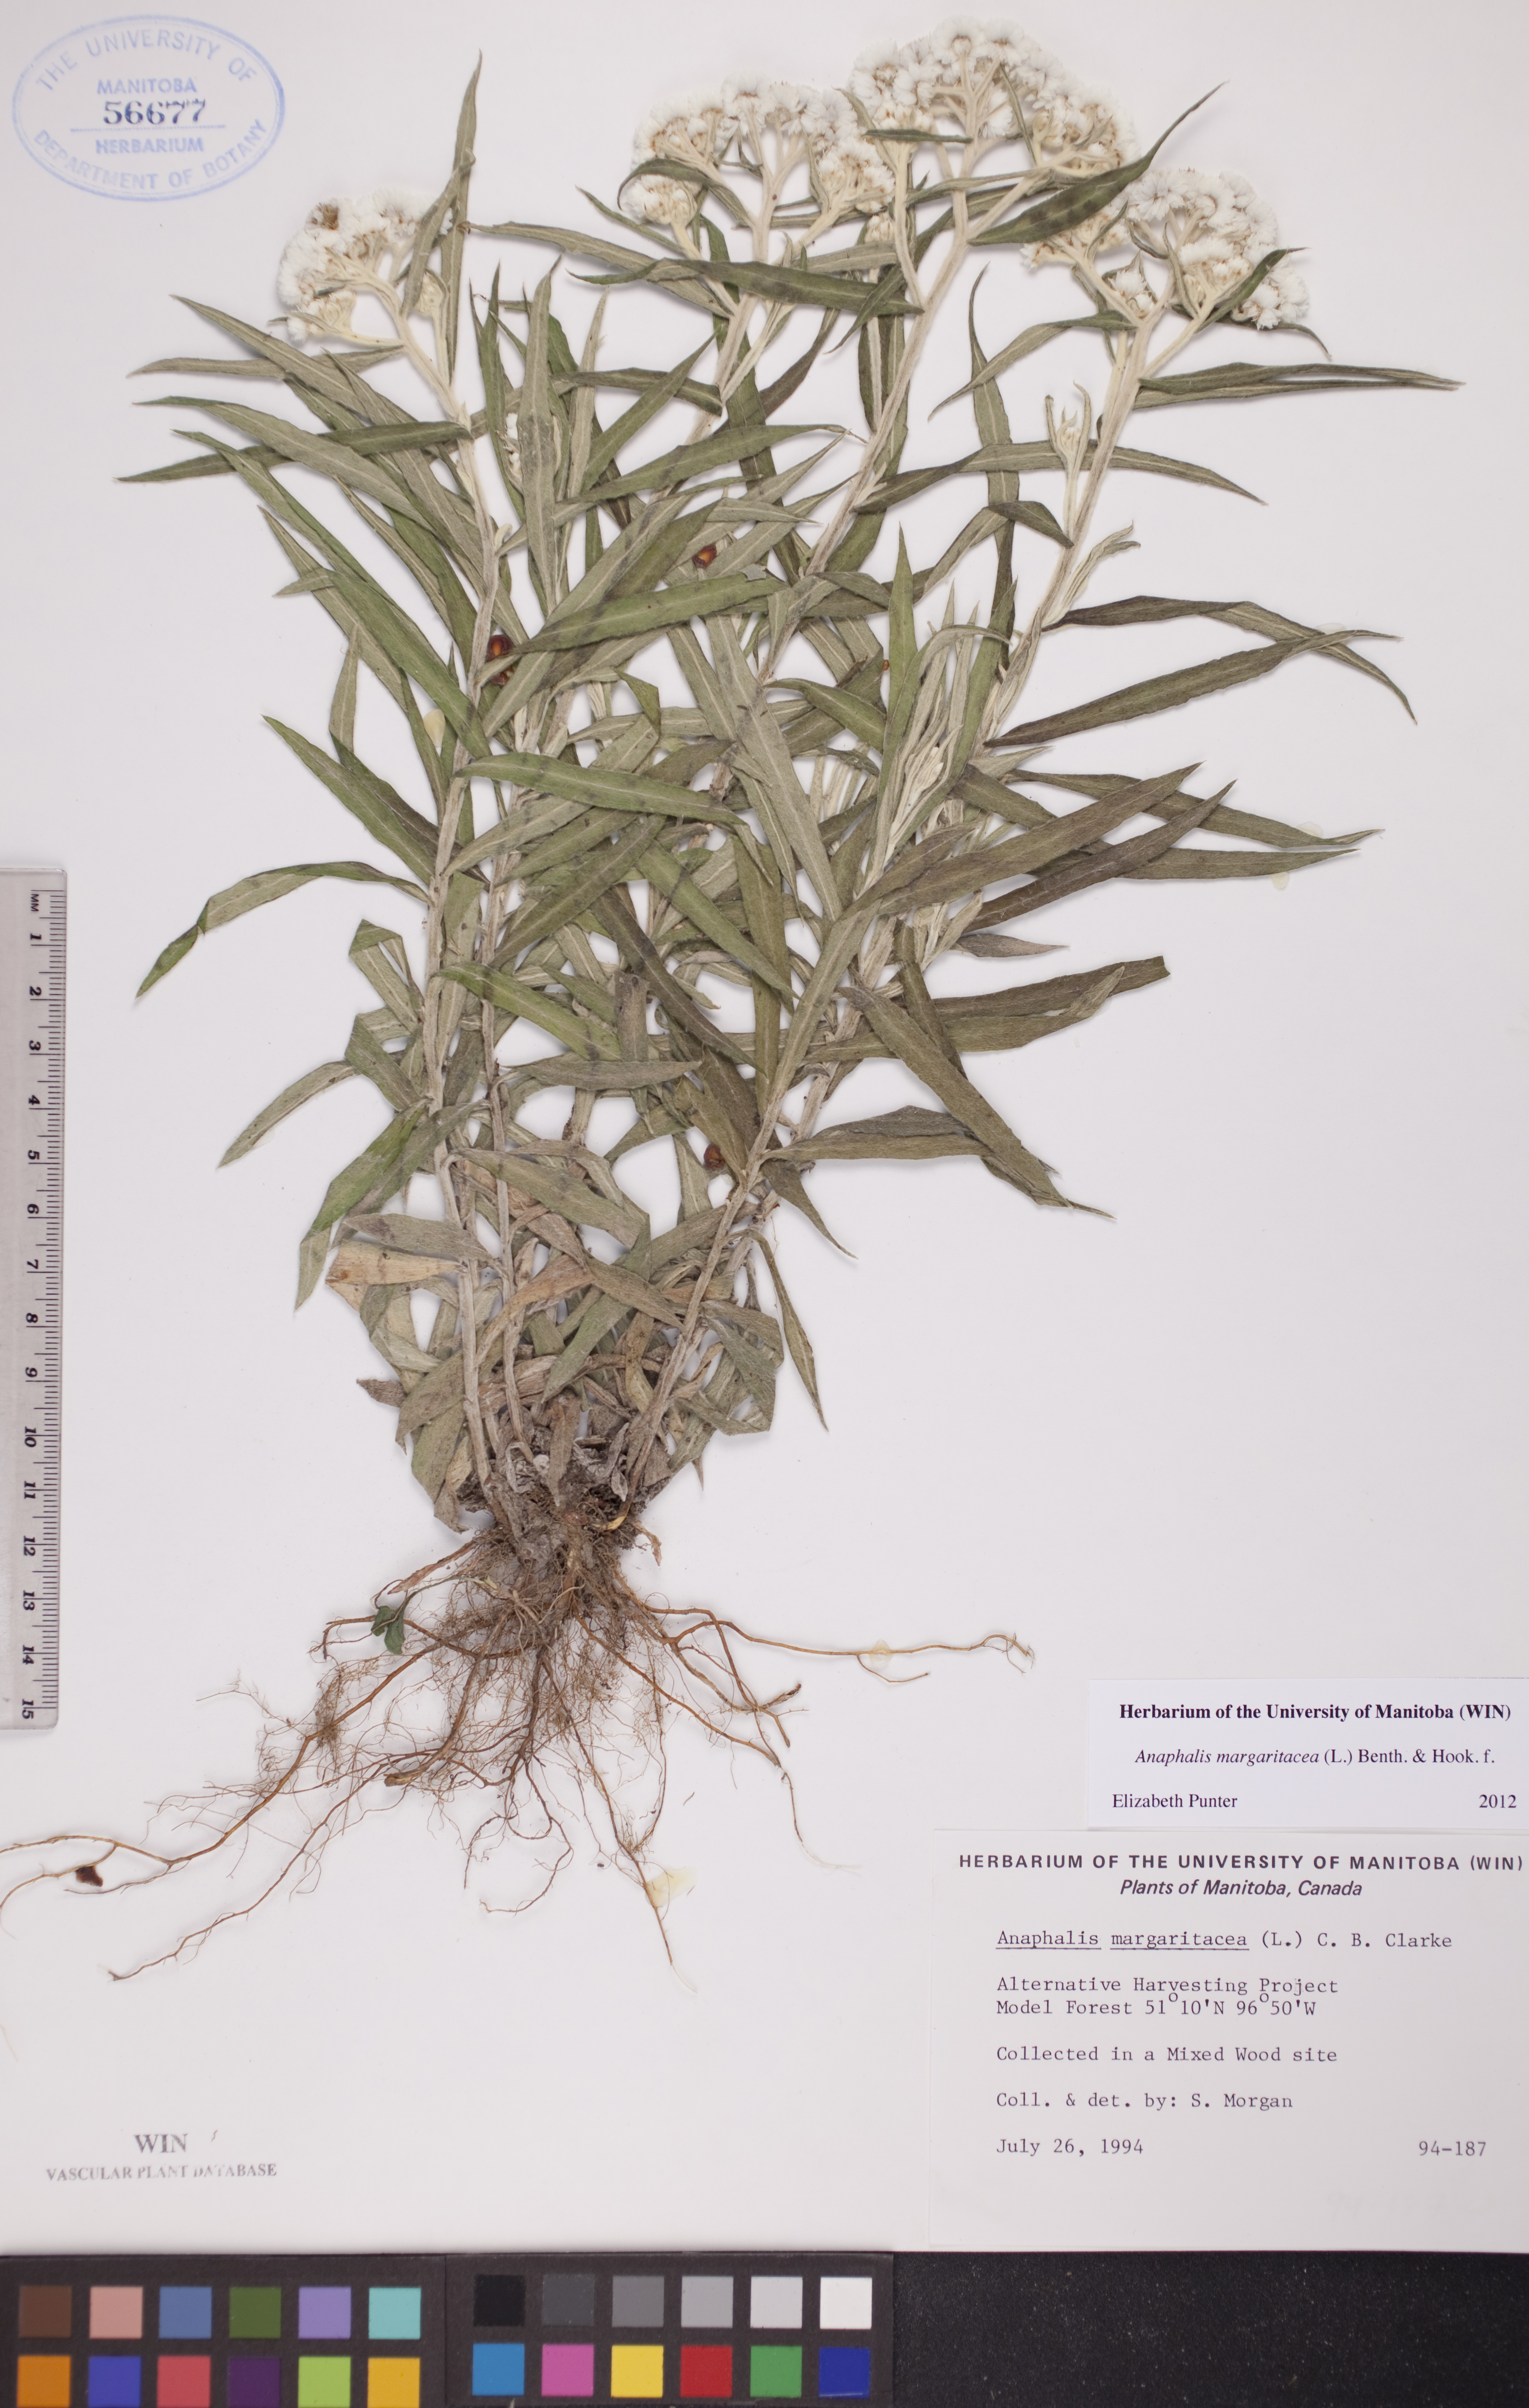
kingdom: Plantae
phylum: Tracheophyta
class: Magnoliopsida
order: Asterales
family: Asteraceae
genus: Anaphalis
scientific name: Anaphalis margaritacea
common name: Pearly everlasting
